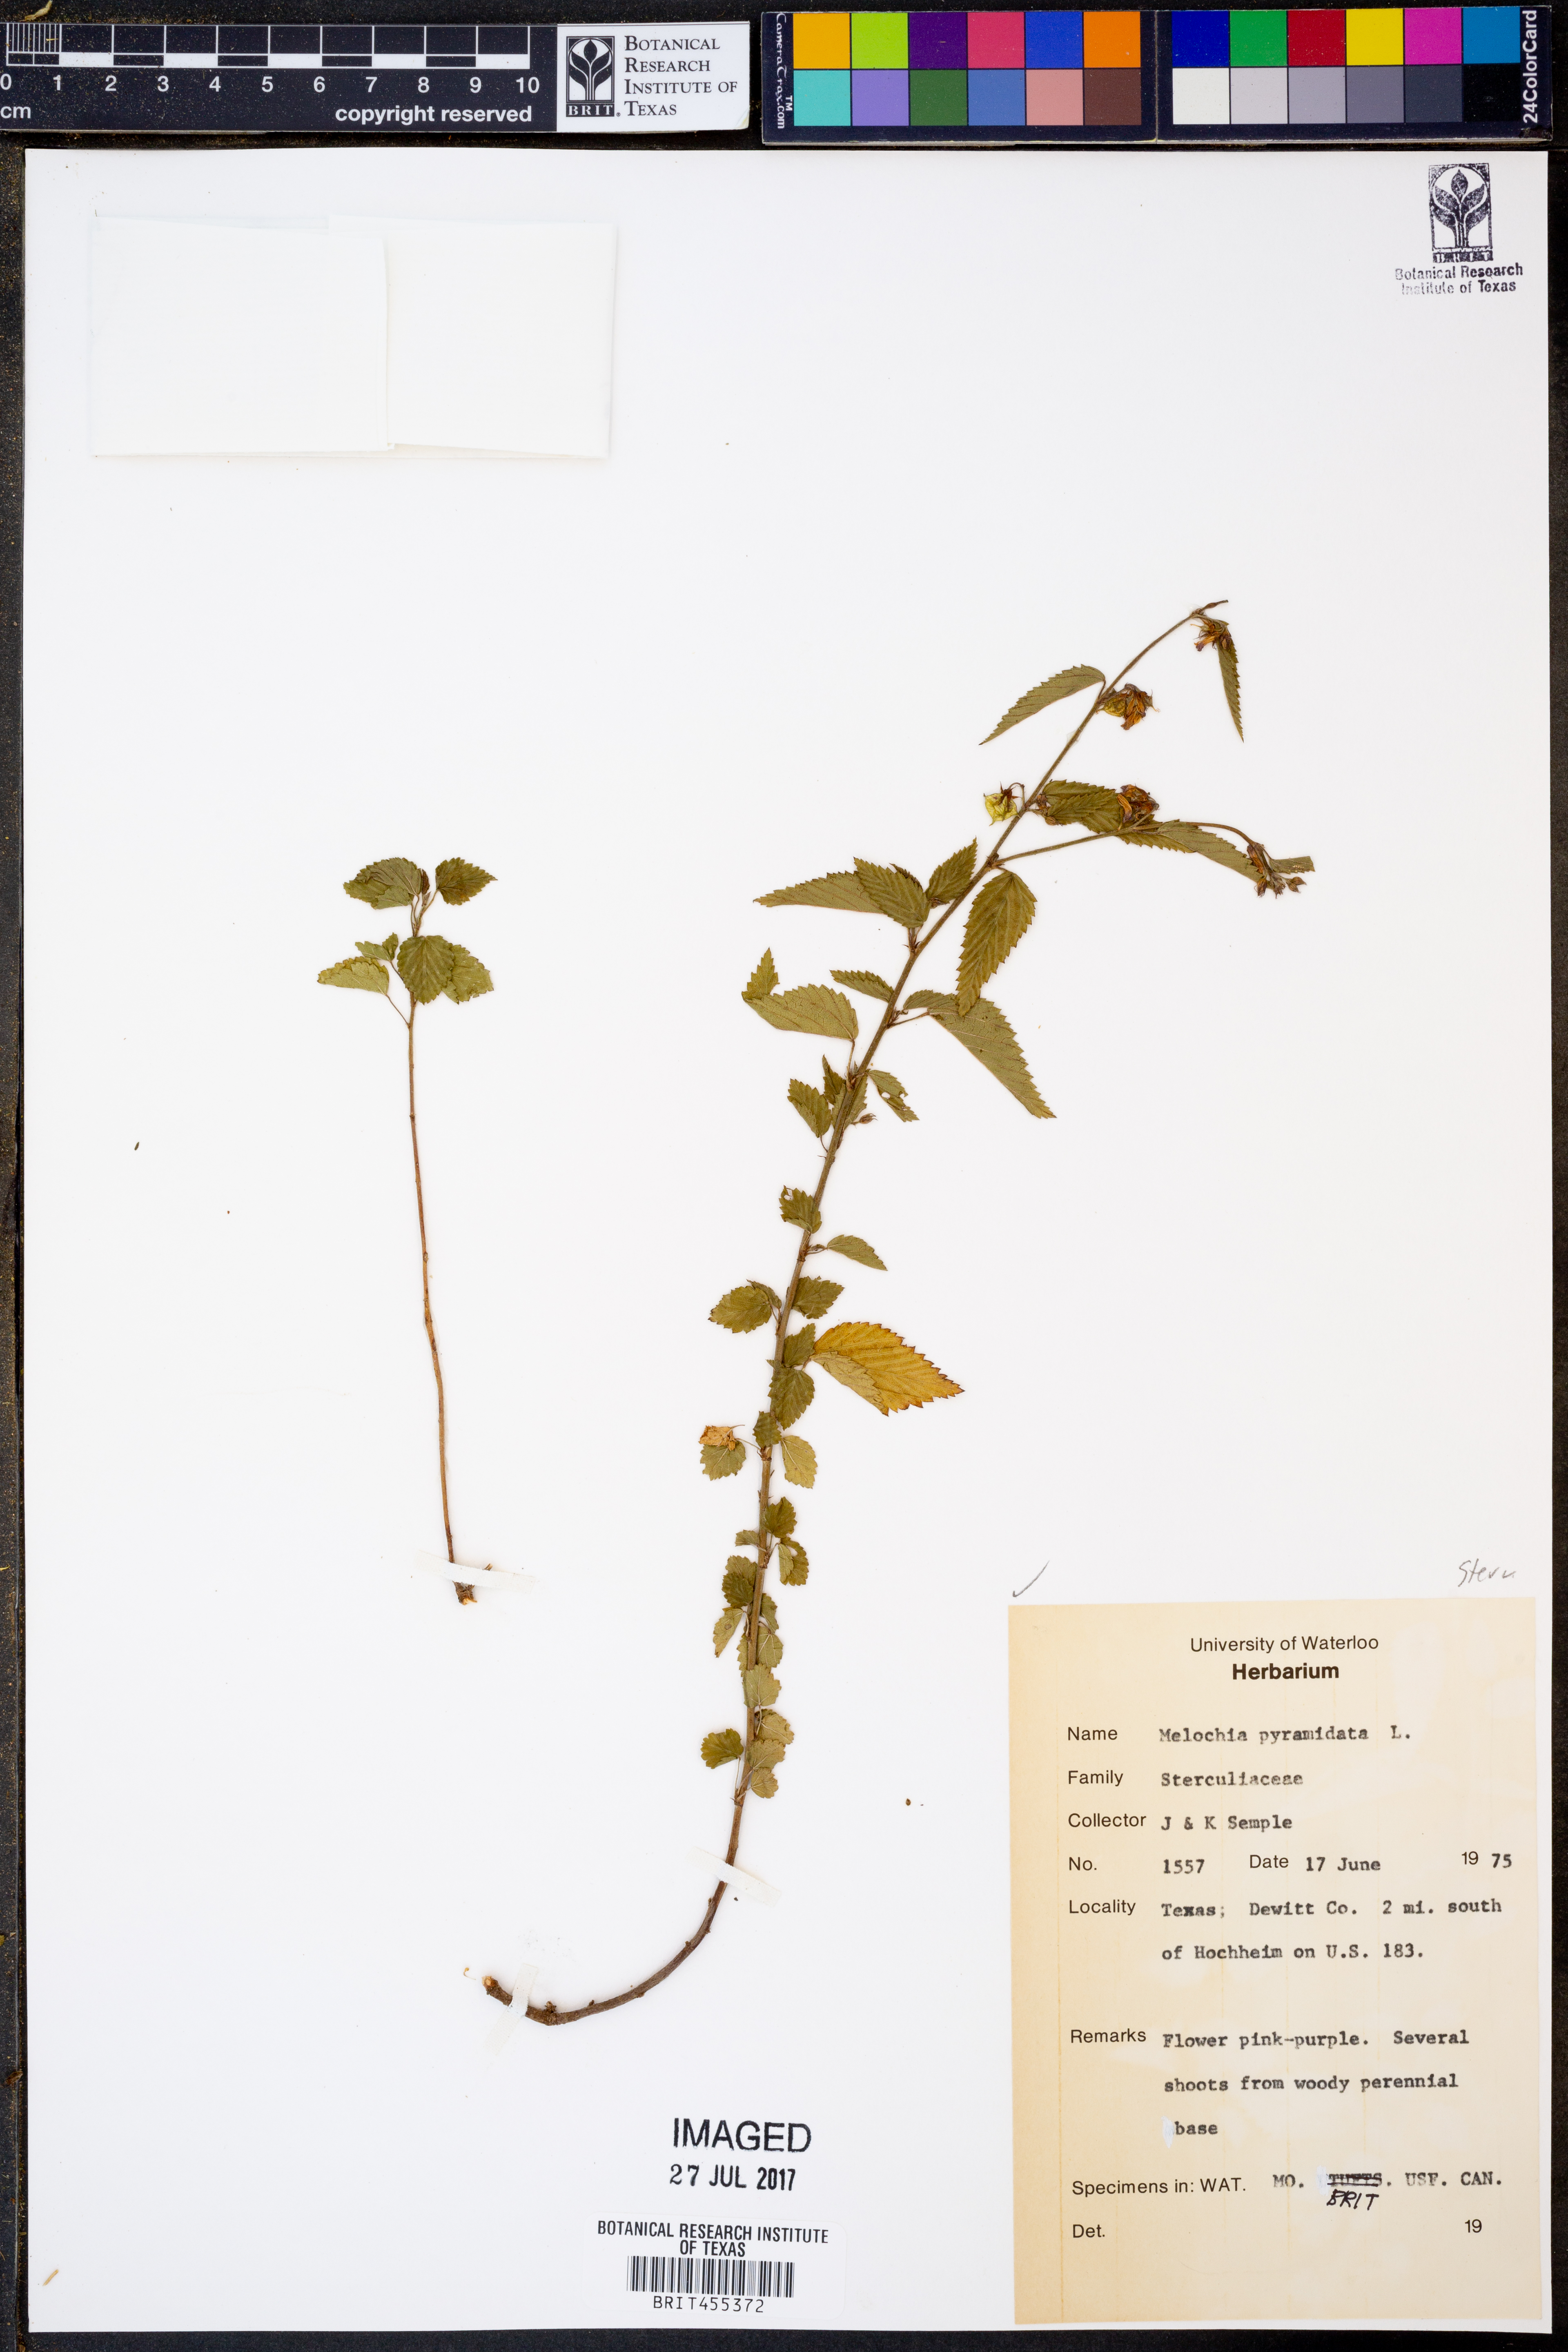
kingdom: Plantae
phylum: Tracheophyta
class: Magnoliopsida
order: Malvales
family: Malvaceae
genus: Melochia
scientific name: Melochia pyramidata
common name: Pyramidflower
